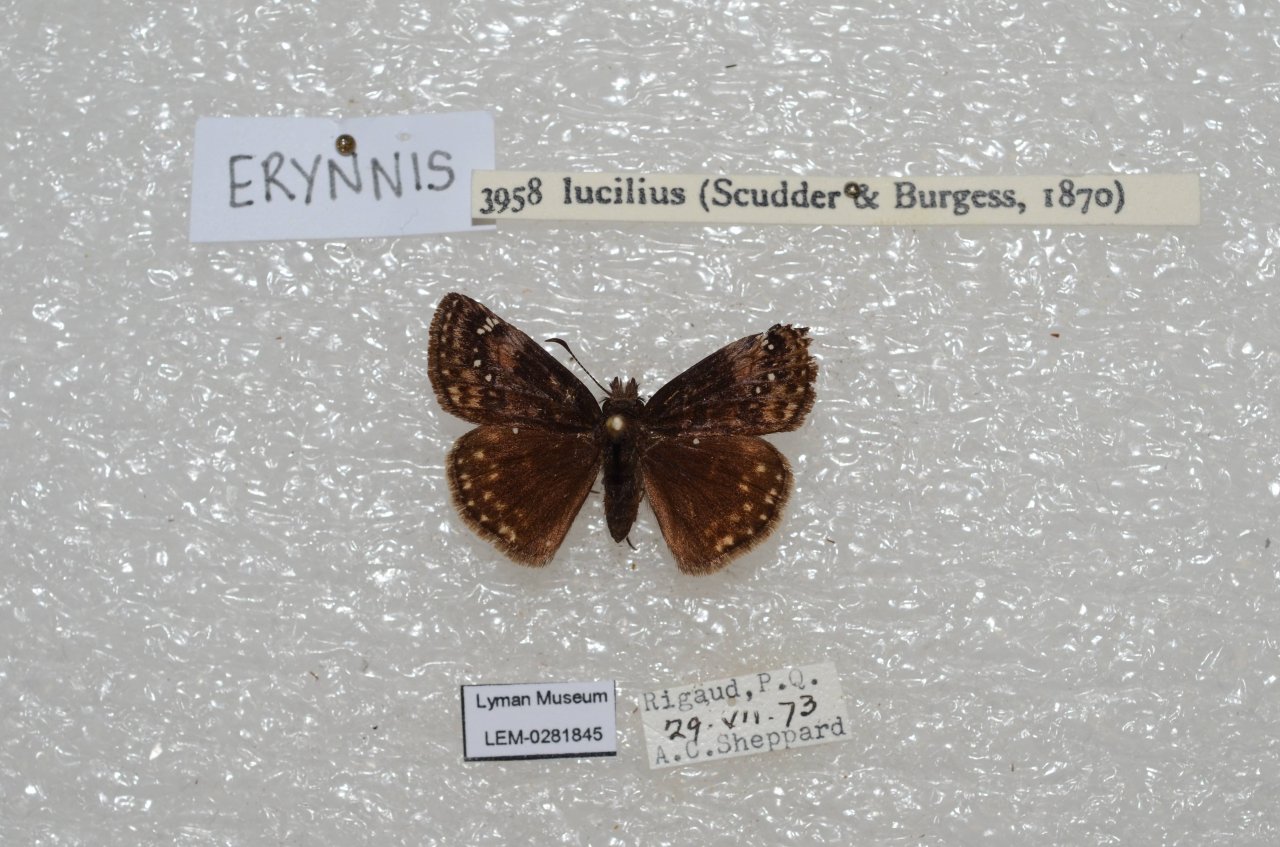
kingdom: Animalia
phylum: Arthropoda
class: Insecta
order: Lepidoptera
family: Hesperiidae
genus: Gesta
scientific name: Gesta
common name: Columbine Duskywing
